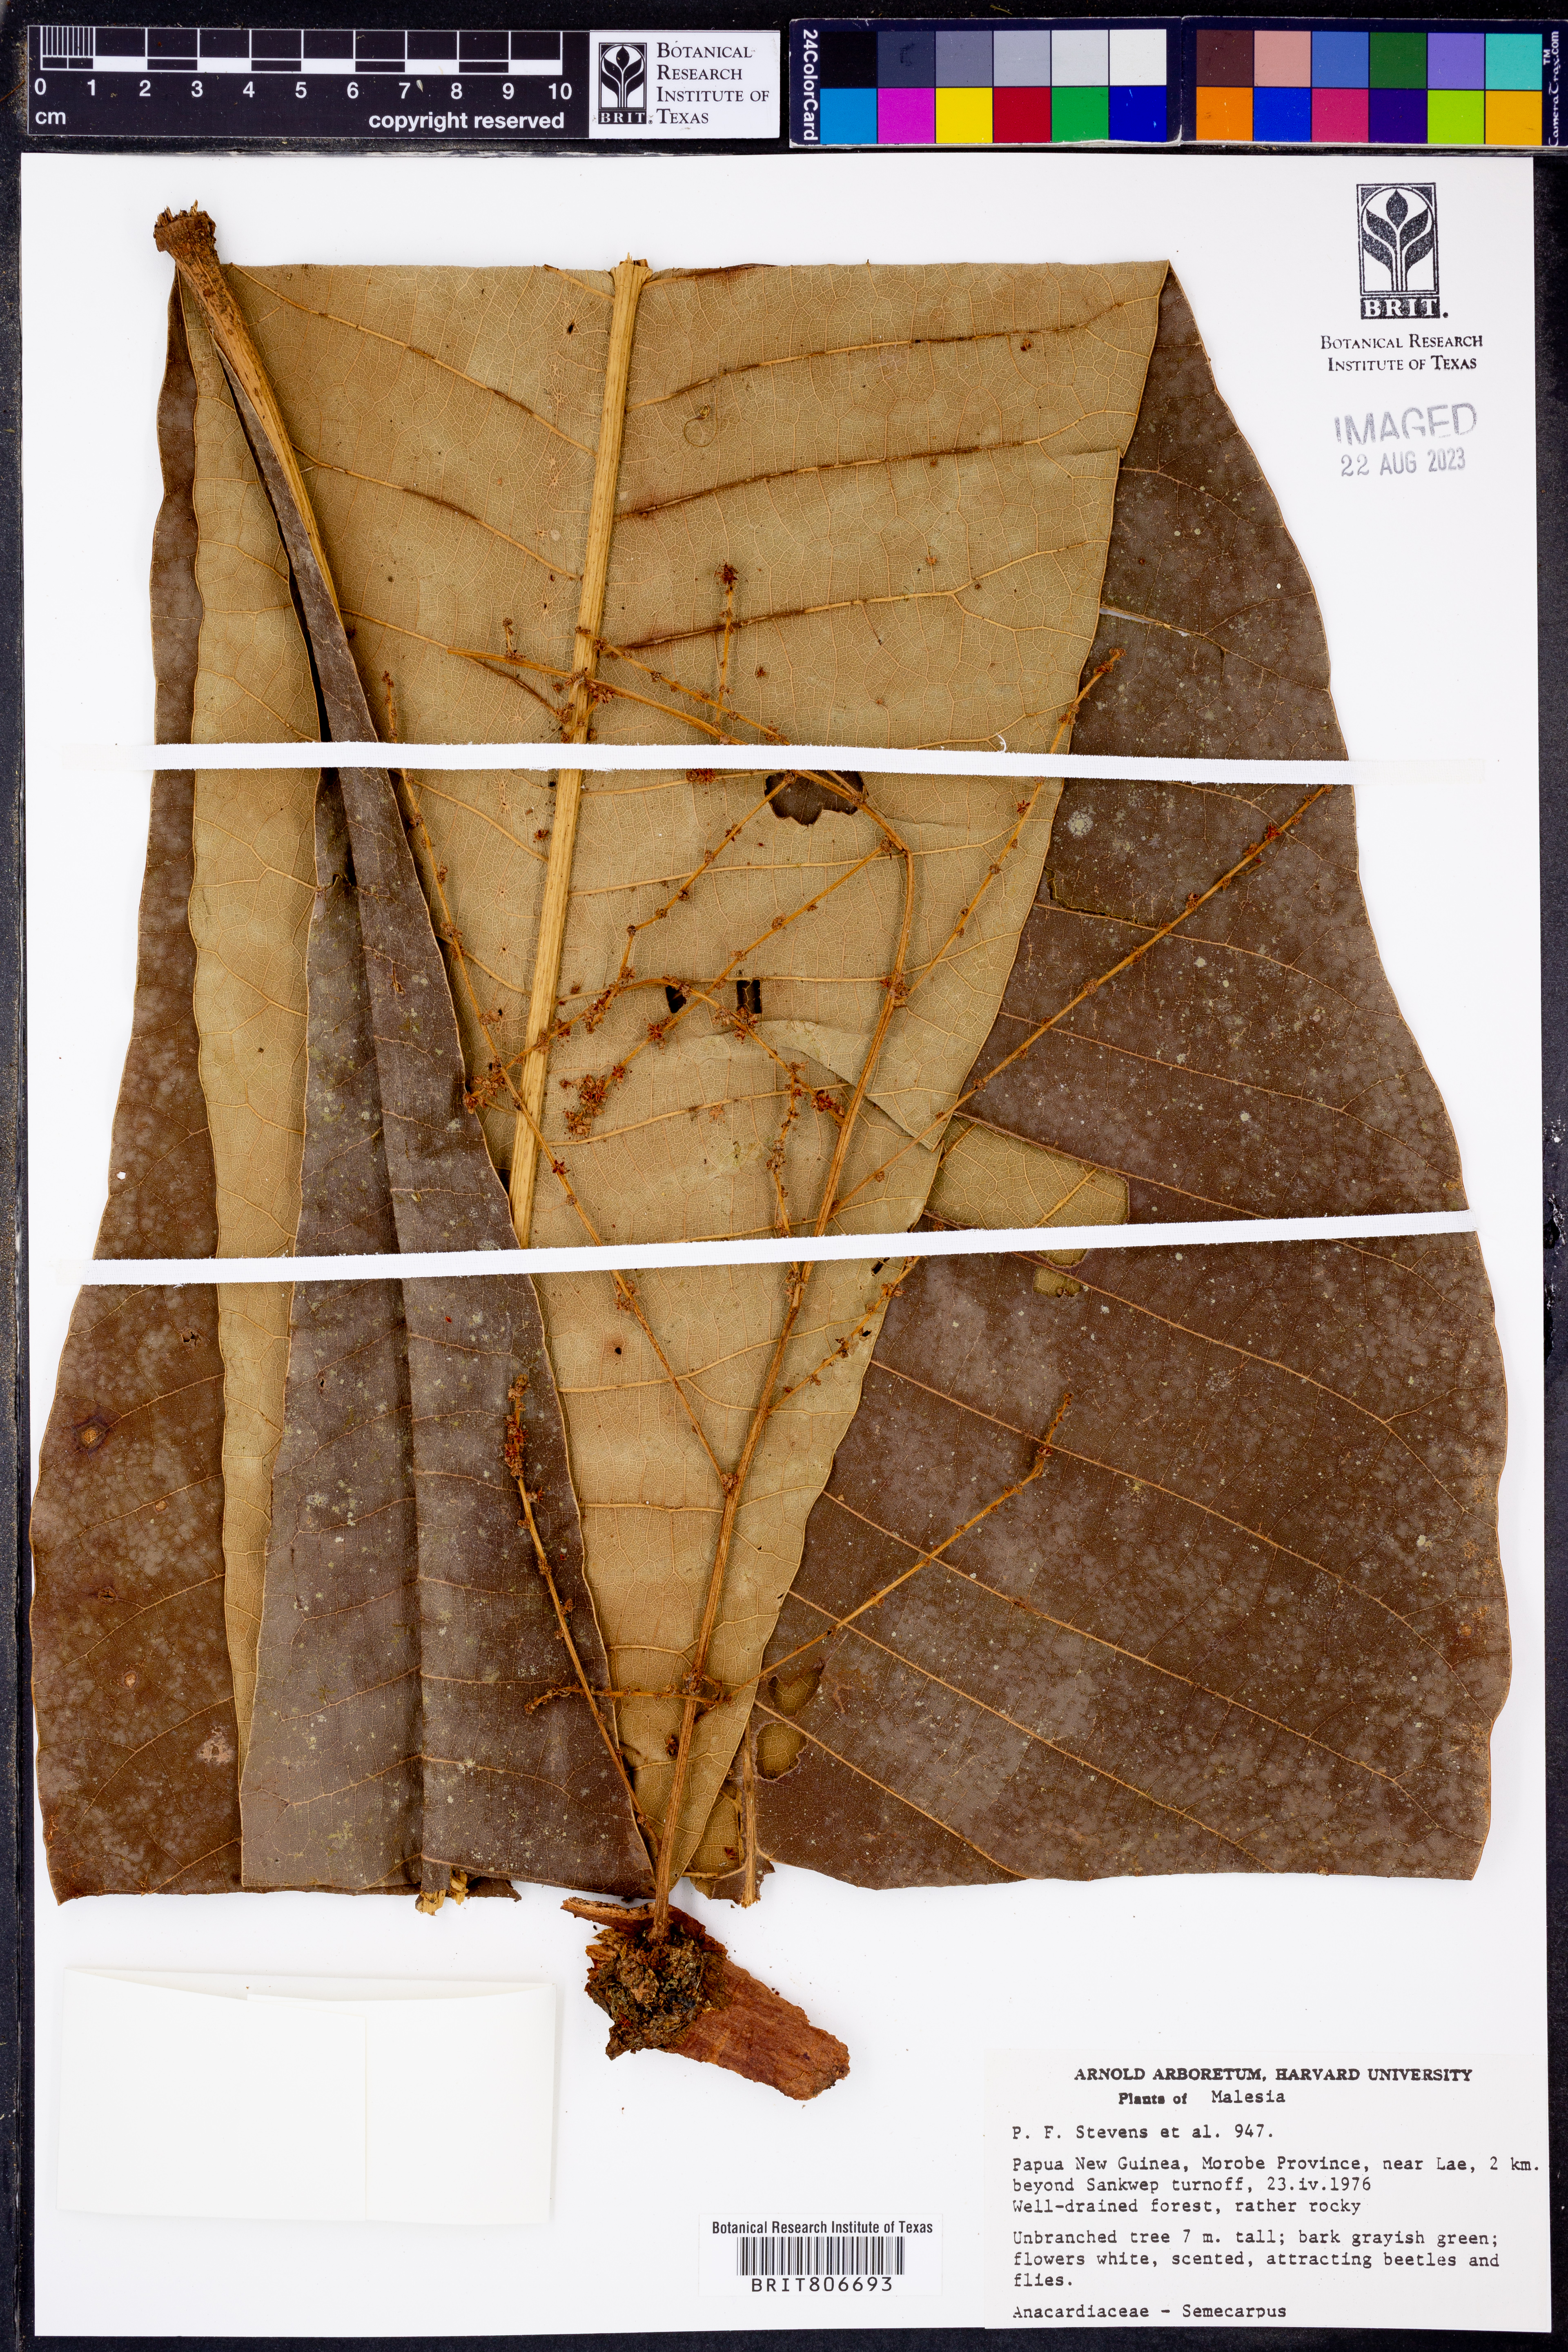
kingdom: Plantae
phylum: Tracheophyta
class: Magnoliopsida
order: Sapindales
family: Anacardiaceae
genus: Semecarpus
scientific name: Semecarpus
